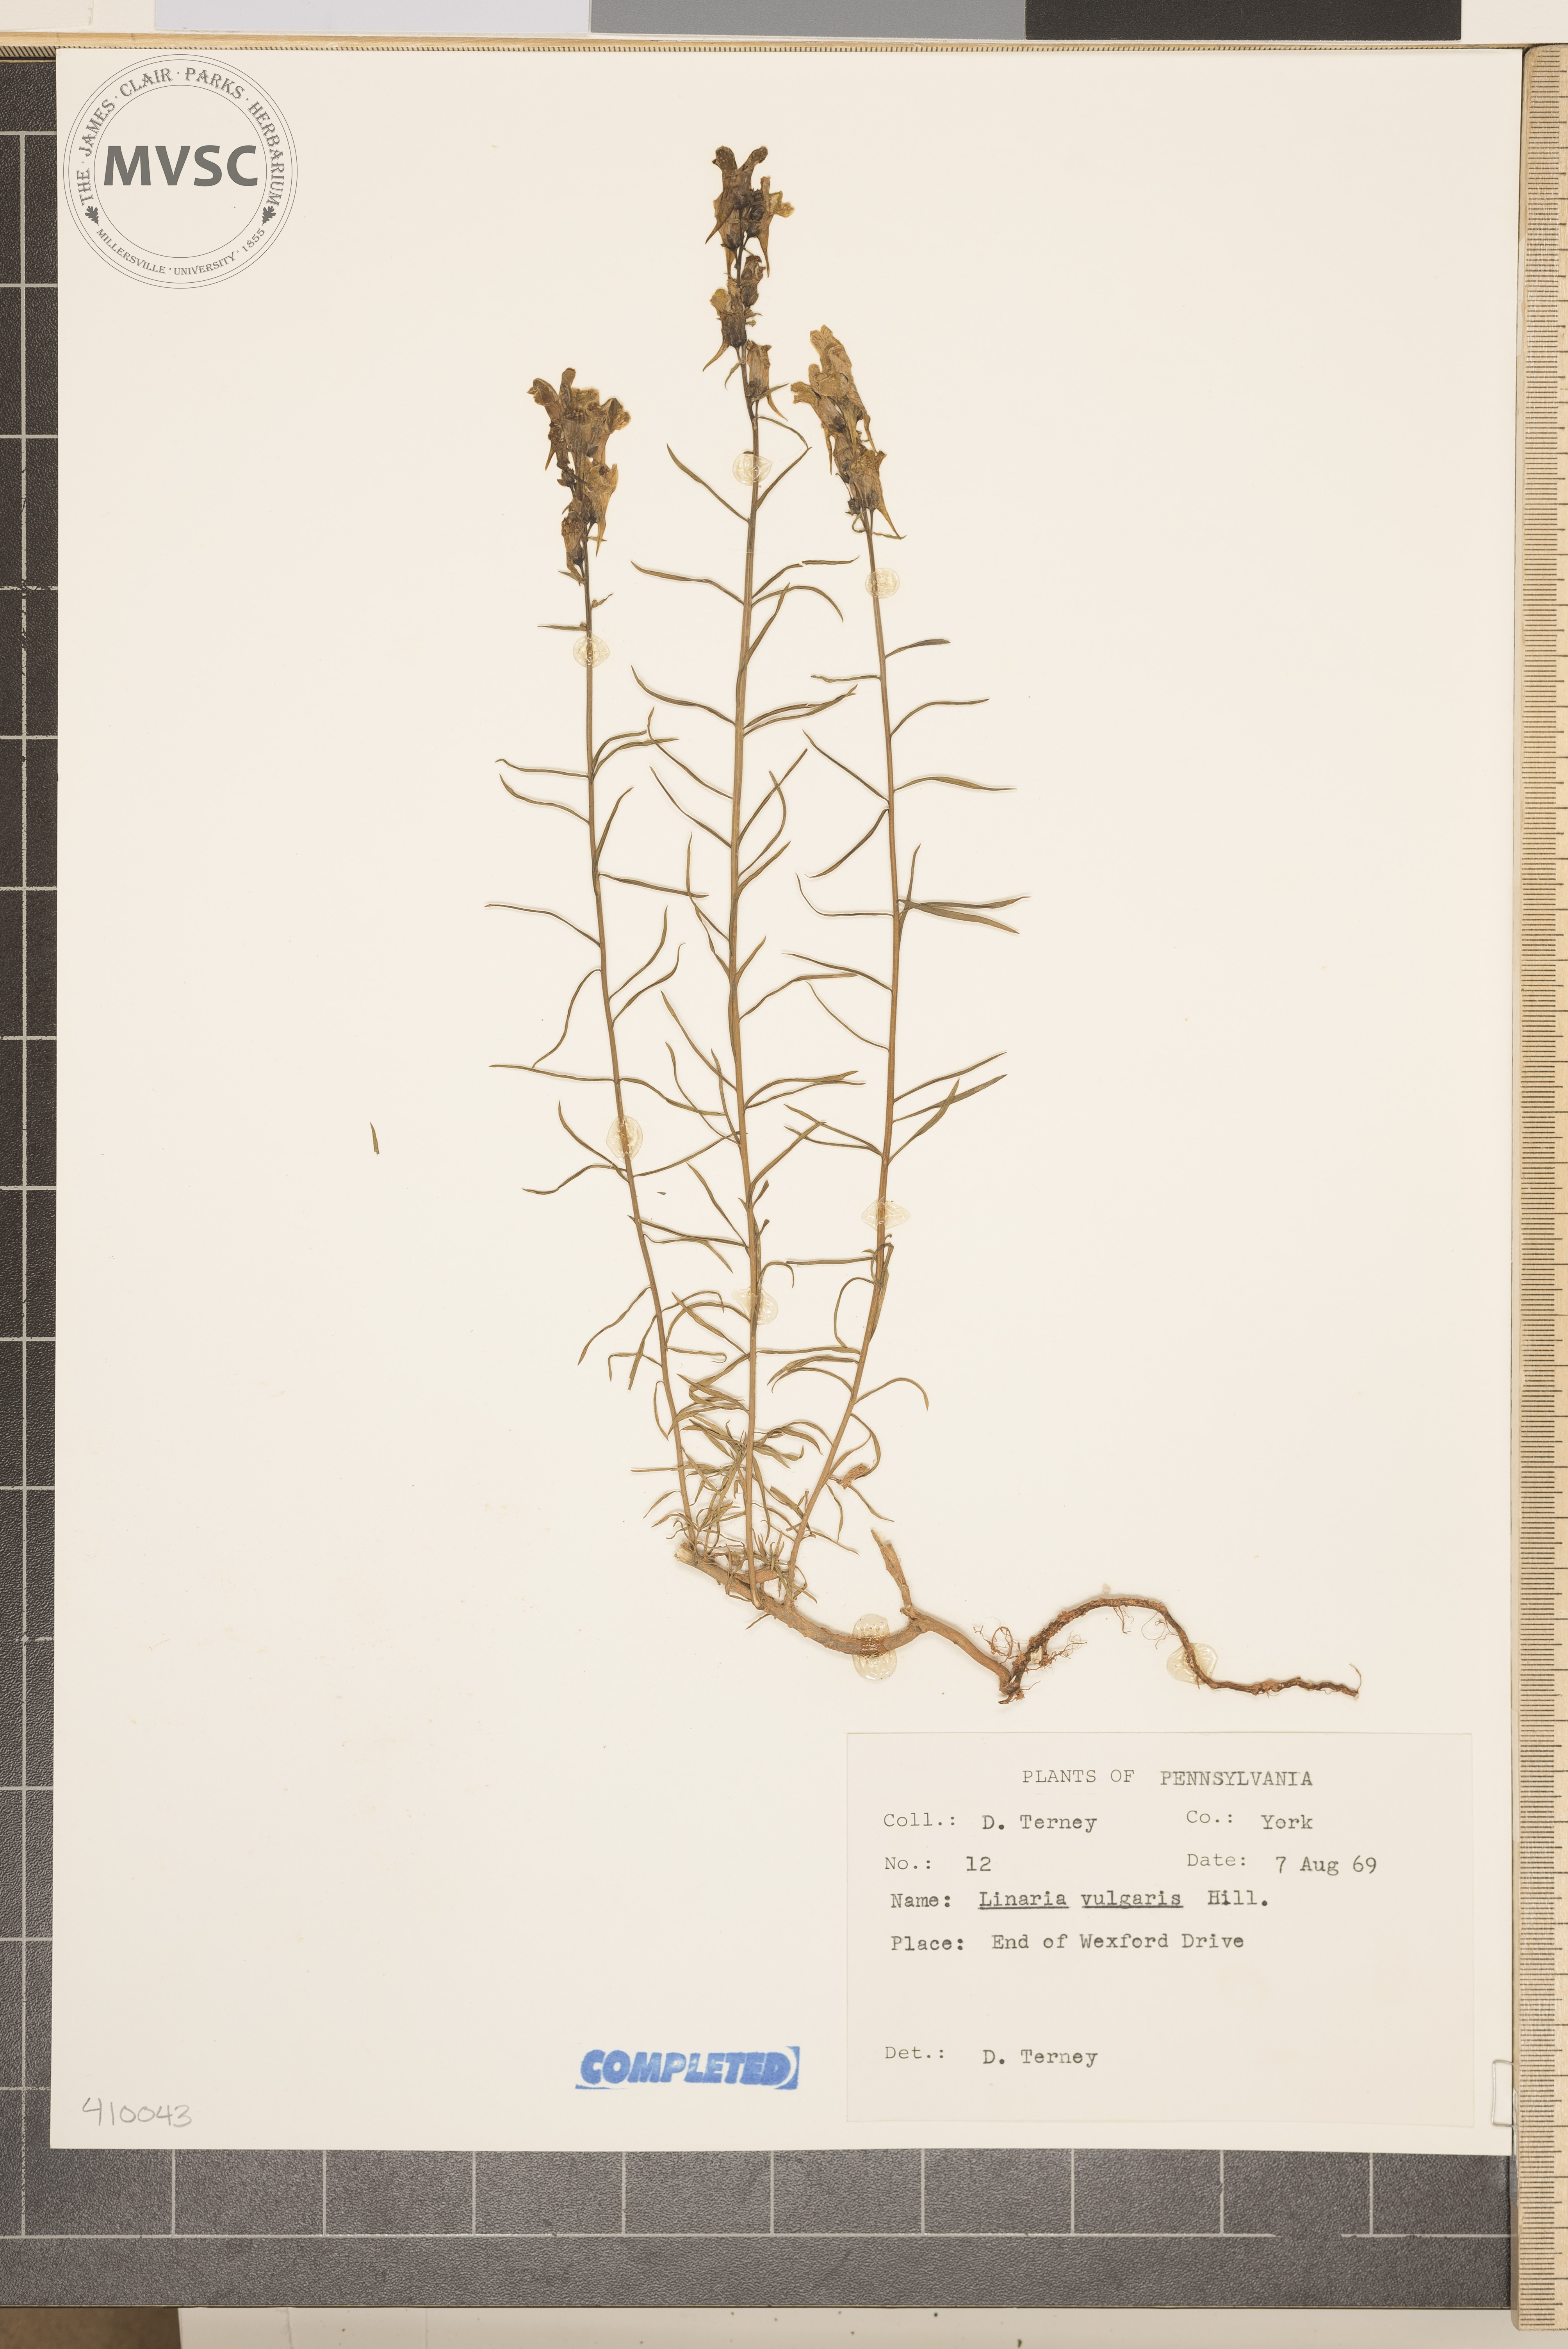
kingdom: Plantae
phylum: Tracheophyta
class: Magnoliopsida
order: Lamiales
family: Plantaginaceae
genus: Linaria
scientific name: Linaria vulgaris
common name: Butter and eggs
